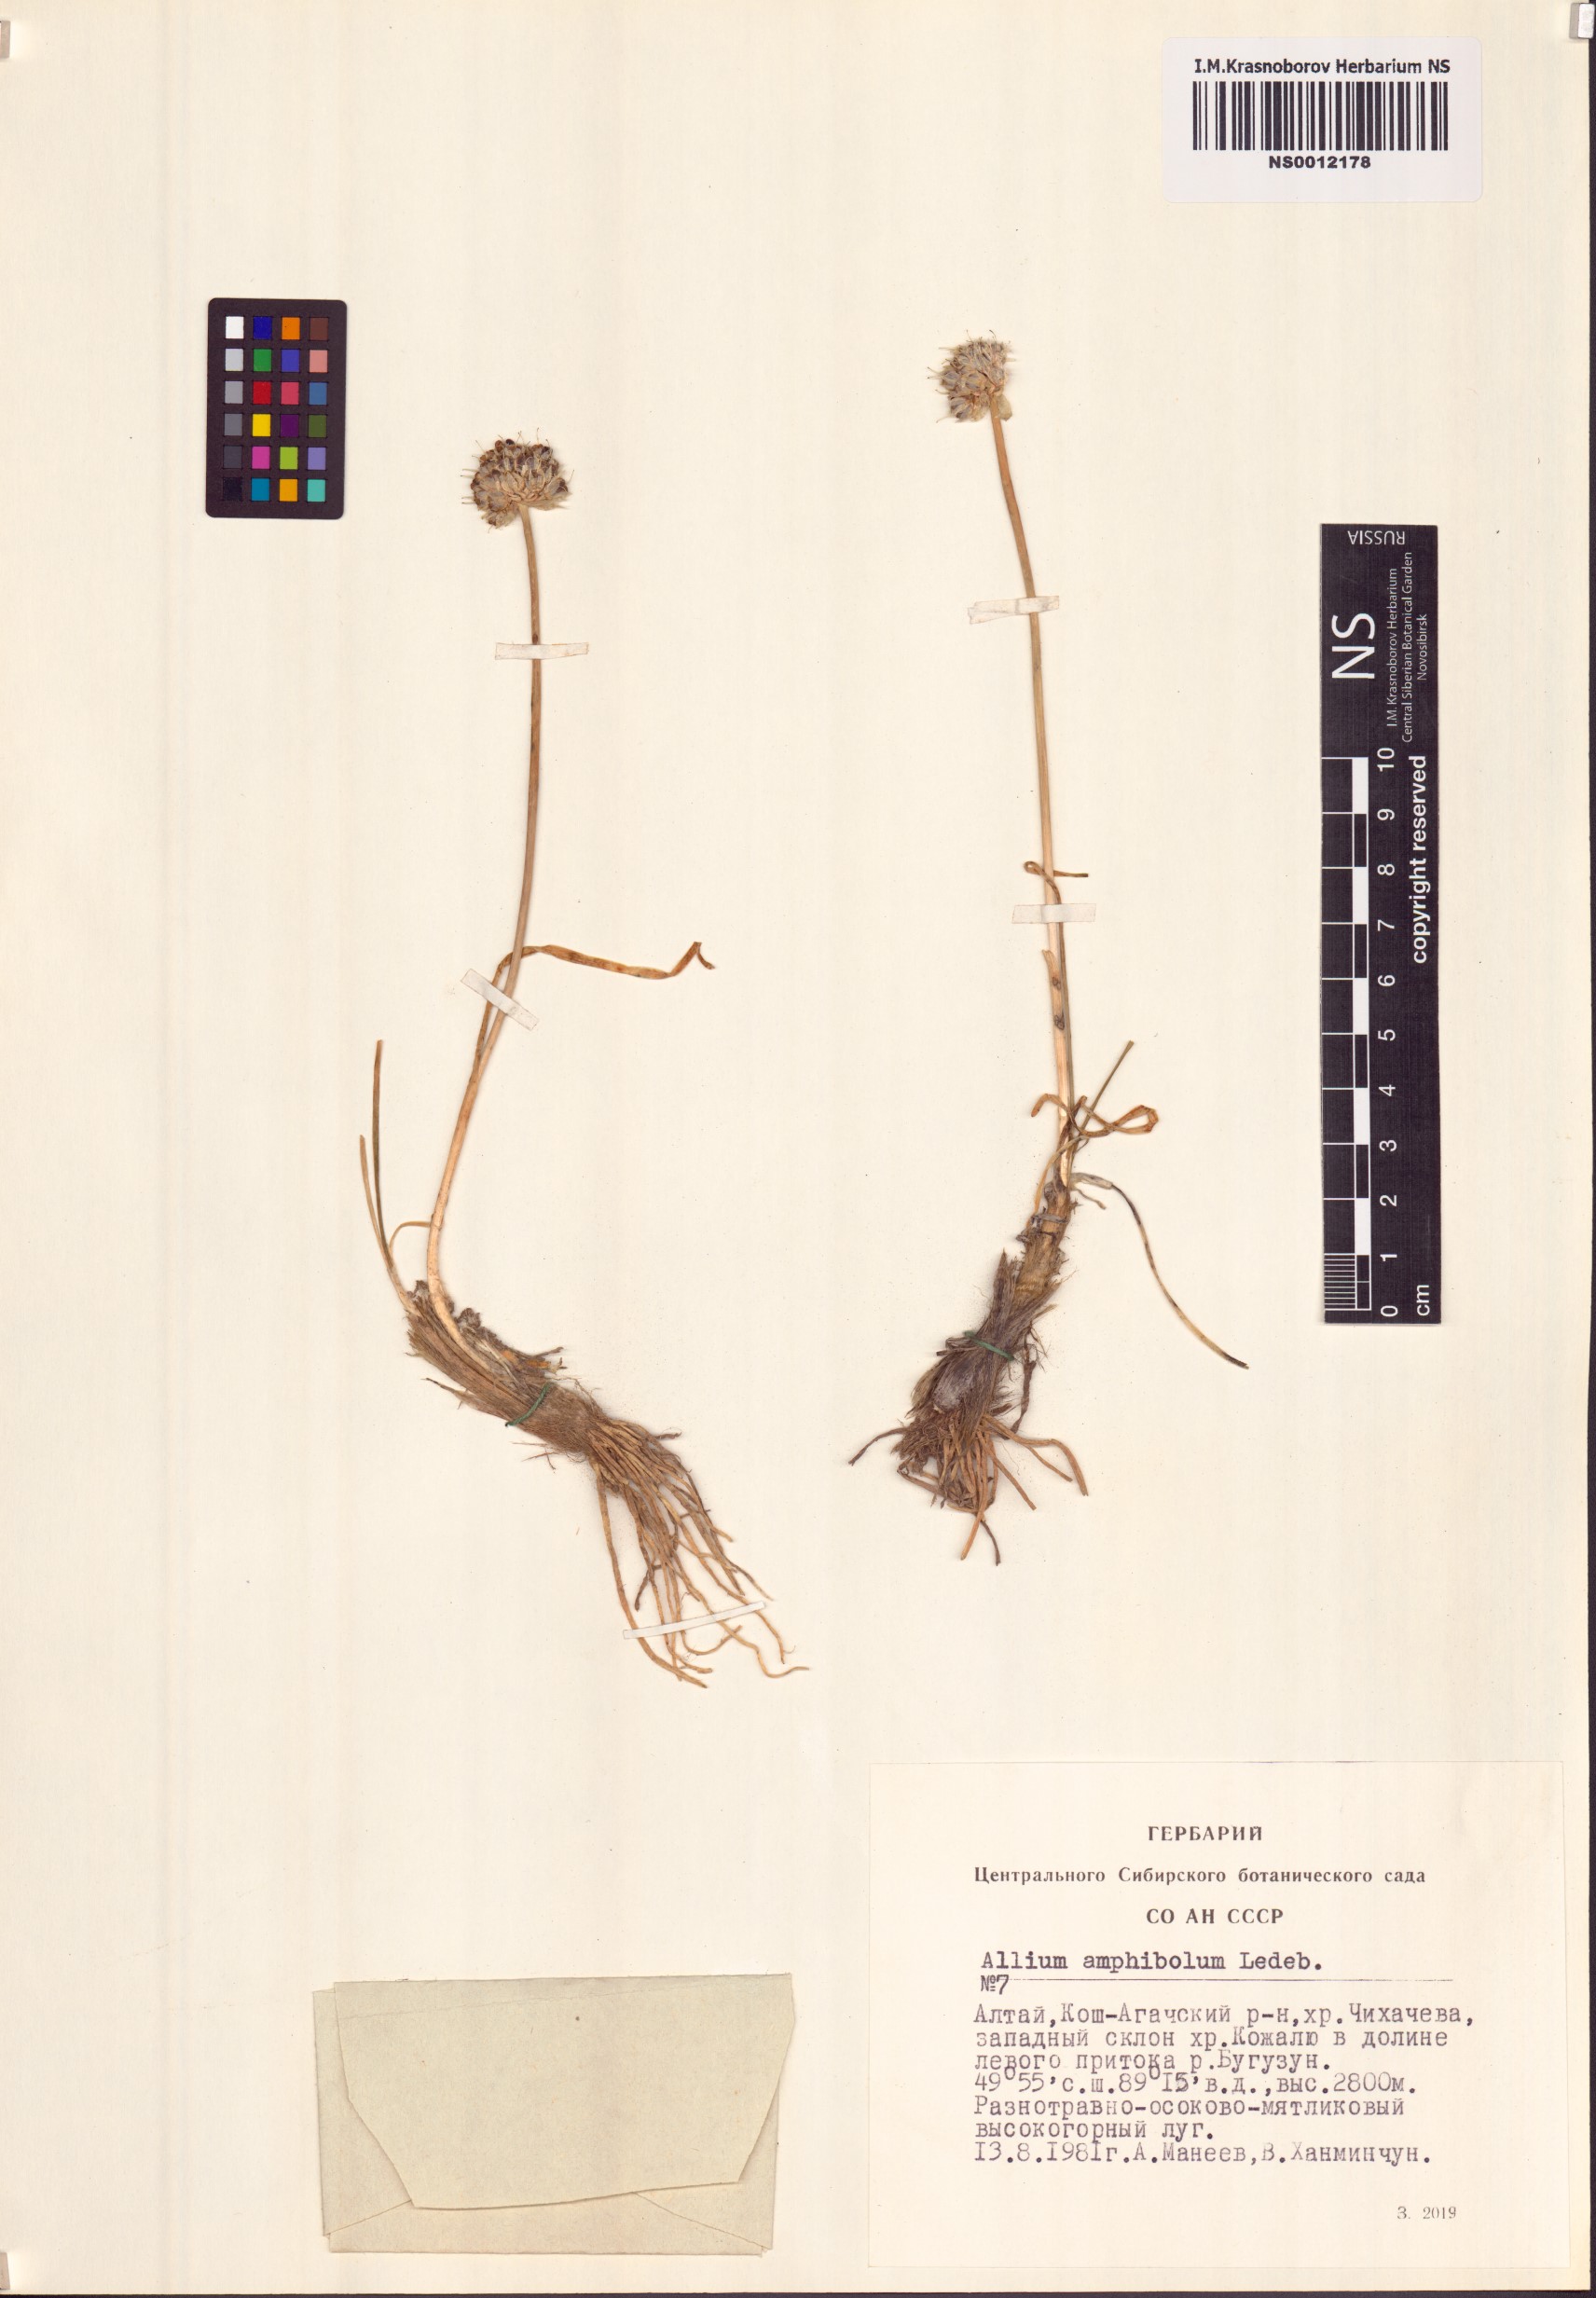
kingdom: Plantae
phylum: Tracheophyta
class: Liliopsida
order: Asparagales
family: Amaryllidaceae
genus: Allium
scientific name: Allium amphibolum
